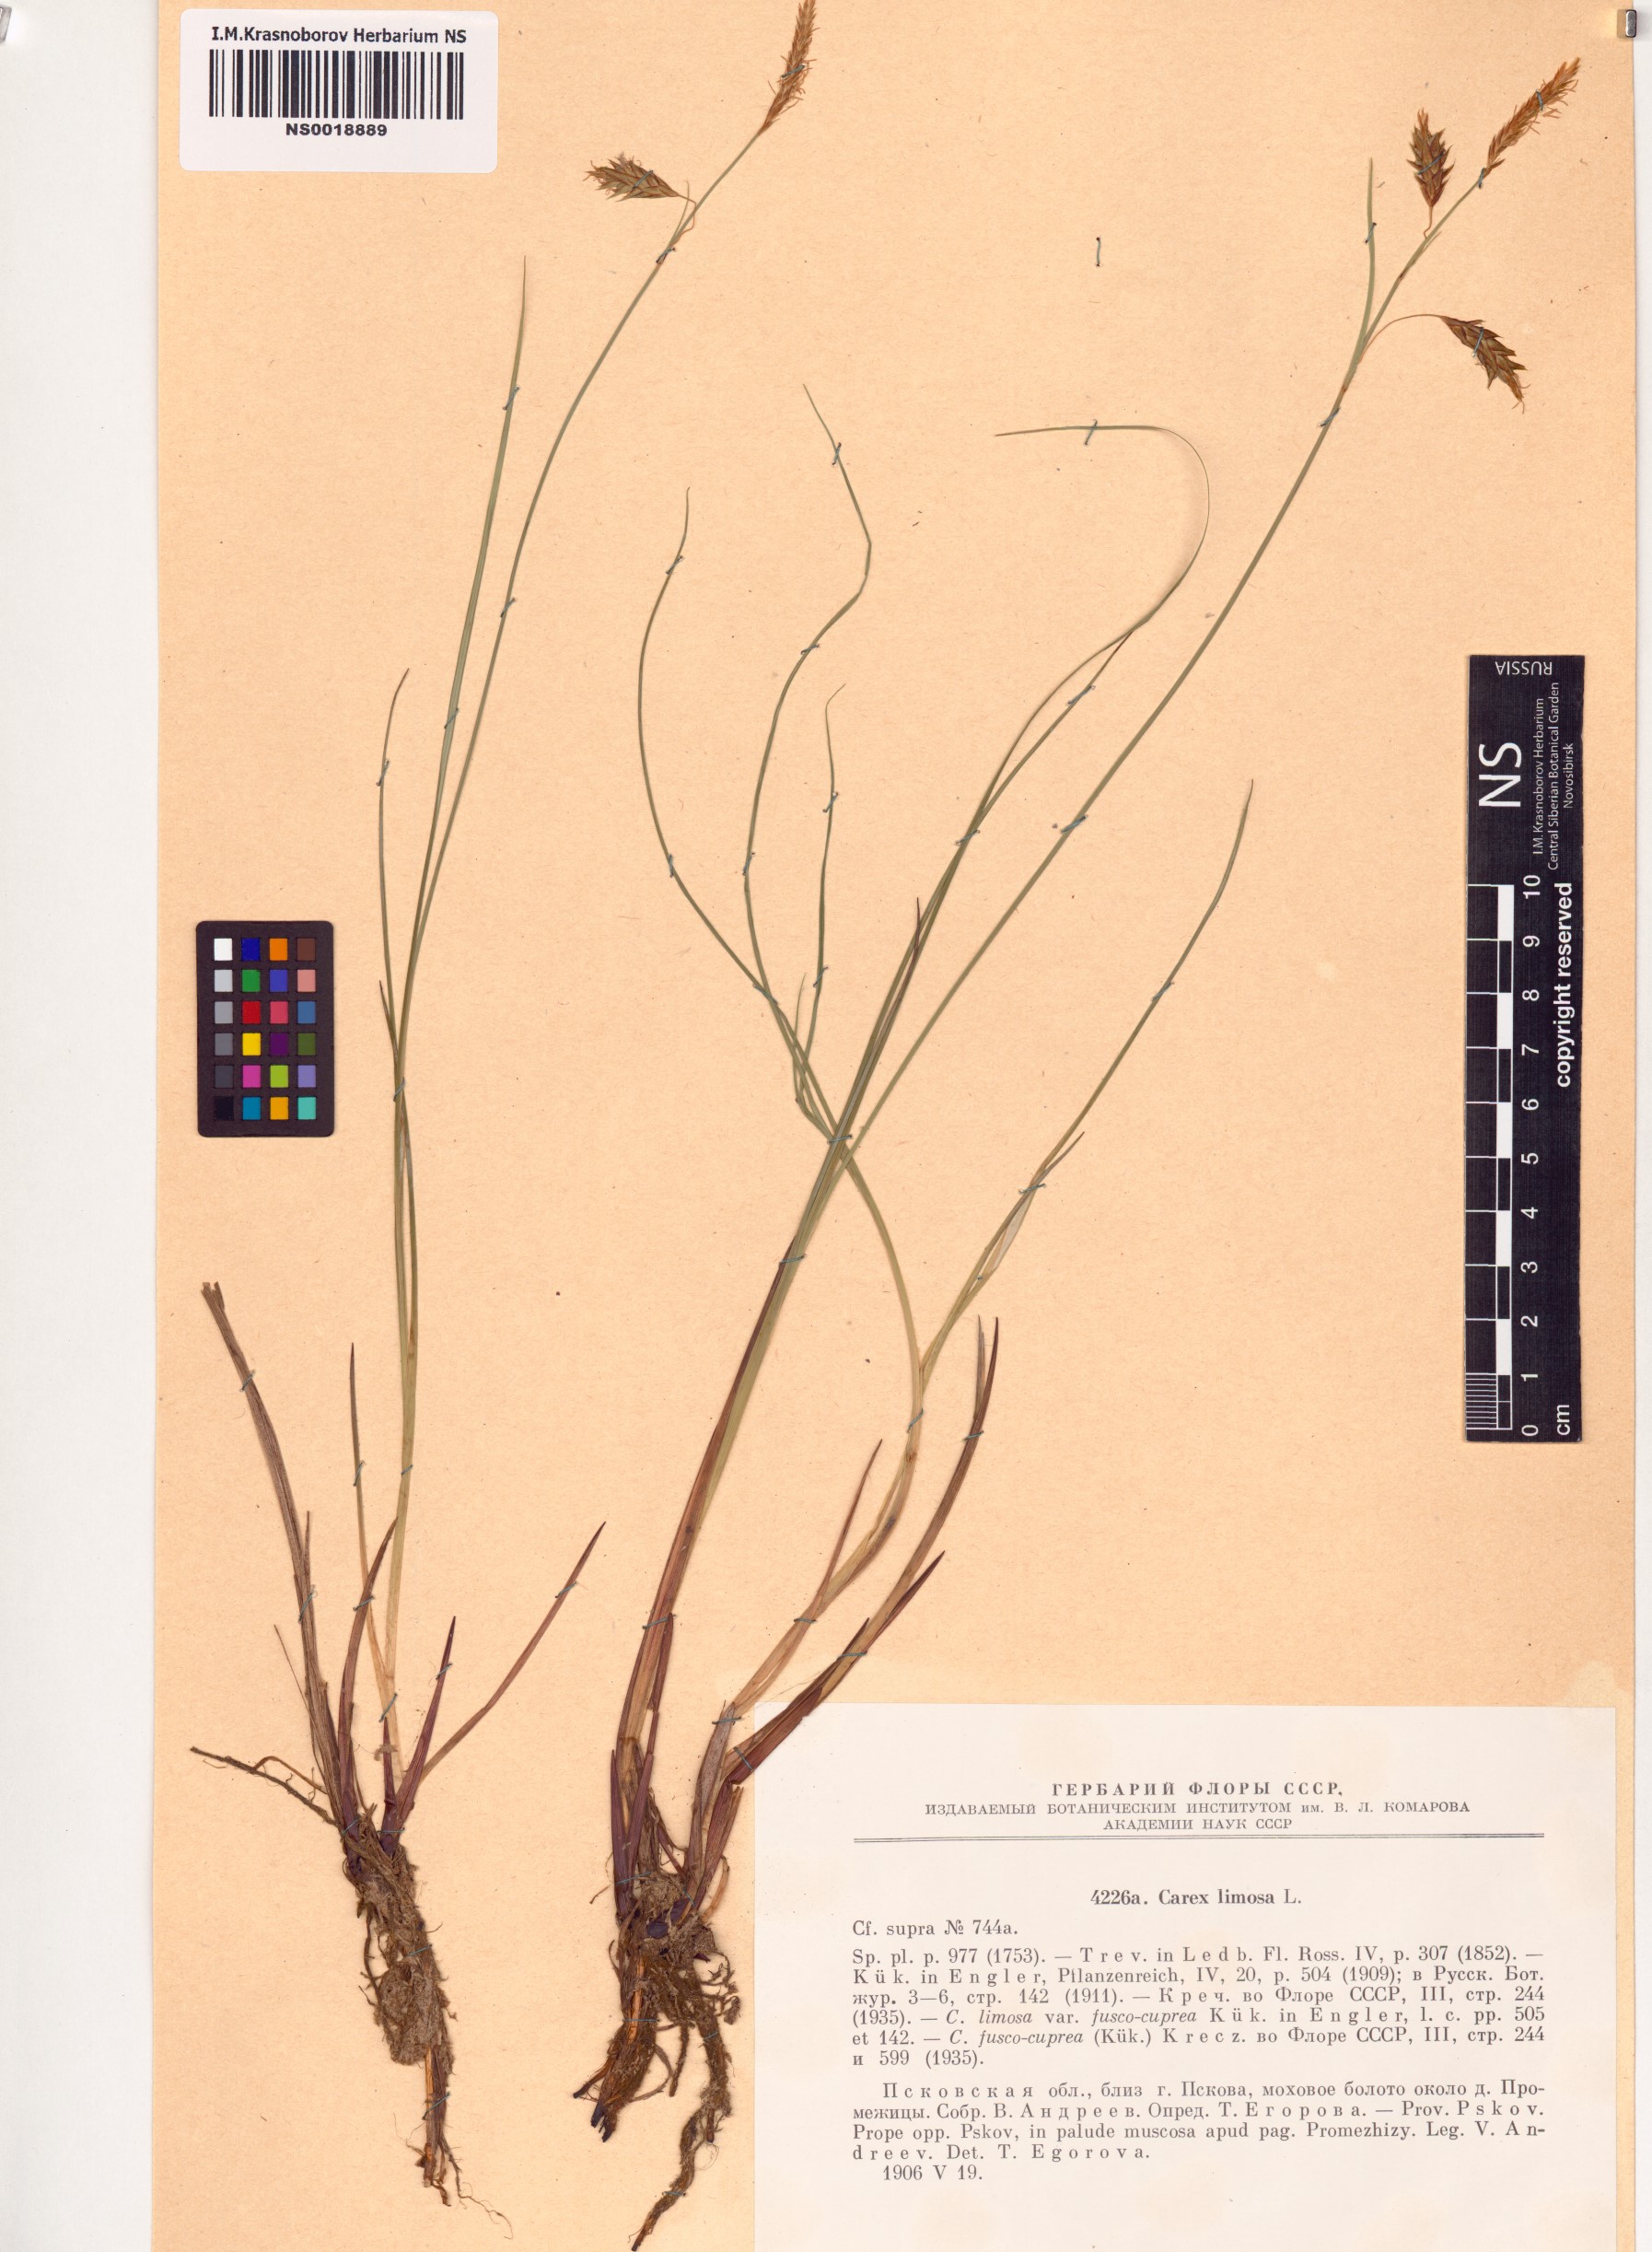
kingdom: Plantae
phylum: Tracheophyta
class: Liliopsida
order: Poales
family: Cyperaceae
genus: Carex
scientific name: Carex limosa
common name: Bog sedge
